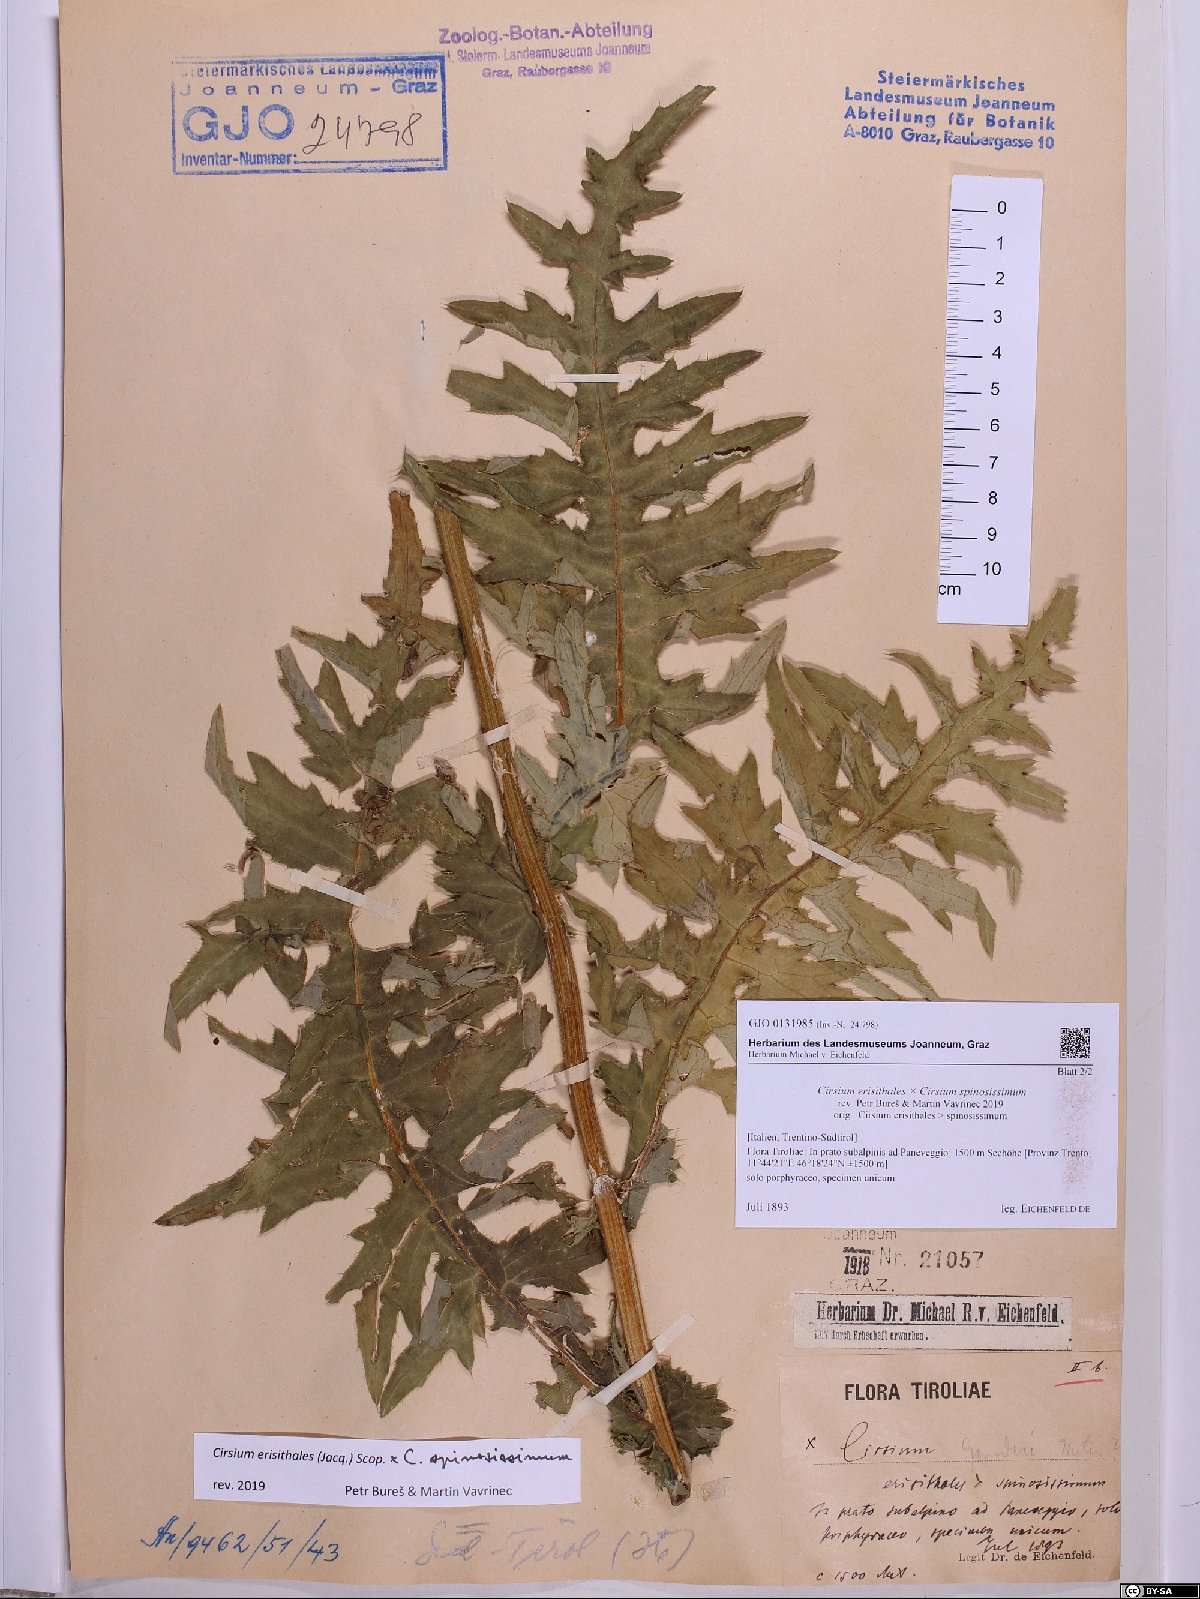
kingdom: Plantae
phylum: Tracheophyta
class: Magnoliopsida
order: Asterales
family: Asteraceae
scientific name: Asteraceae
